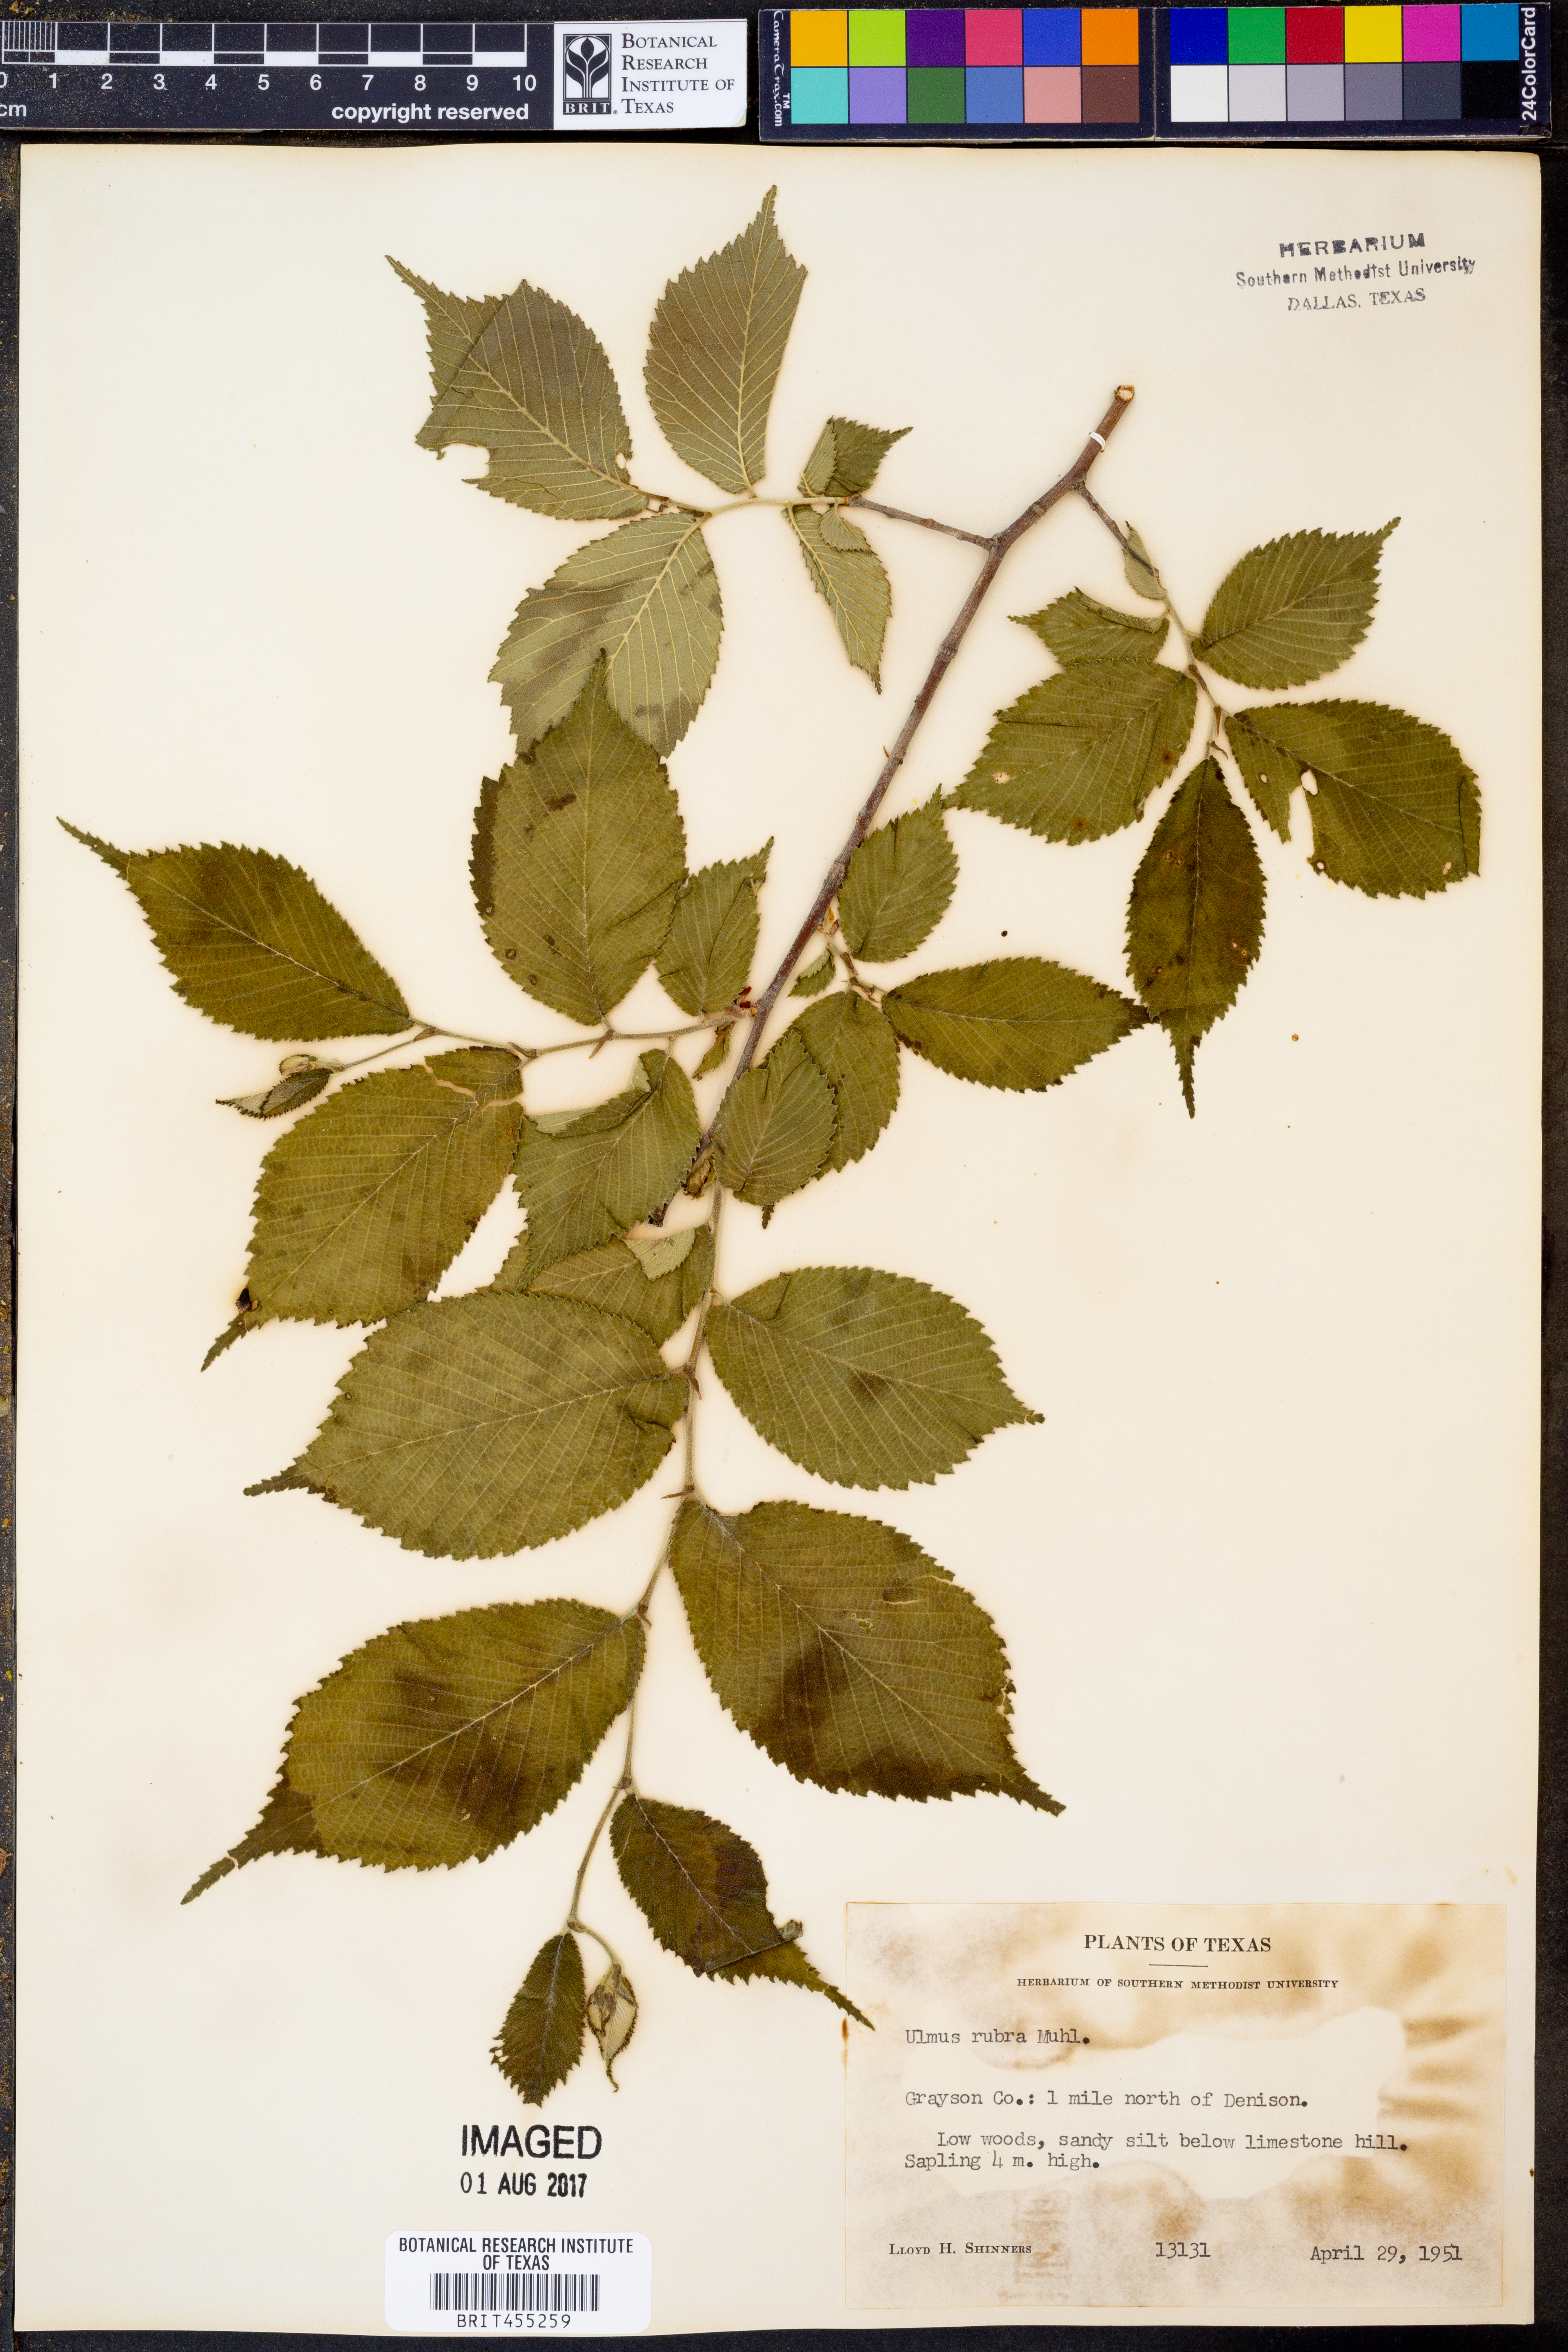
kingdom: Plantae
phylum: Tracheophyta
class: Magnoliopsida
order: Rosales
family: Ulmaceae
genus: Ulmus
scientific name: Ulmus rubra
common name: Slippery elm
